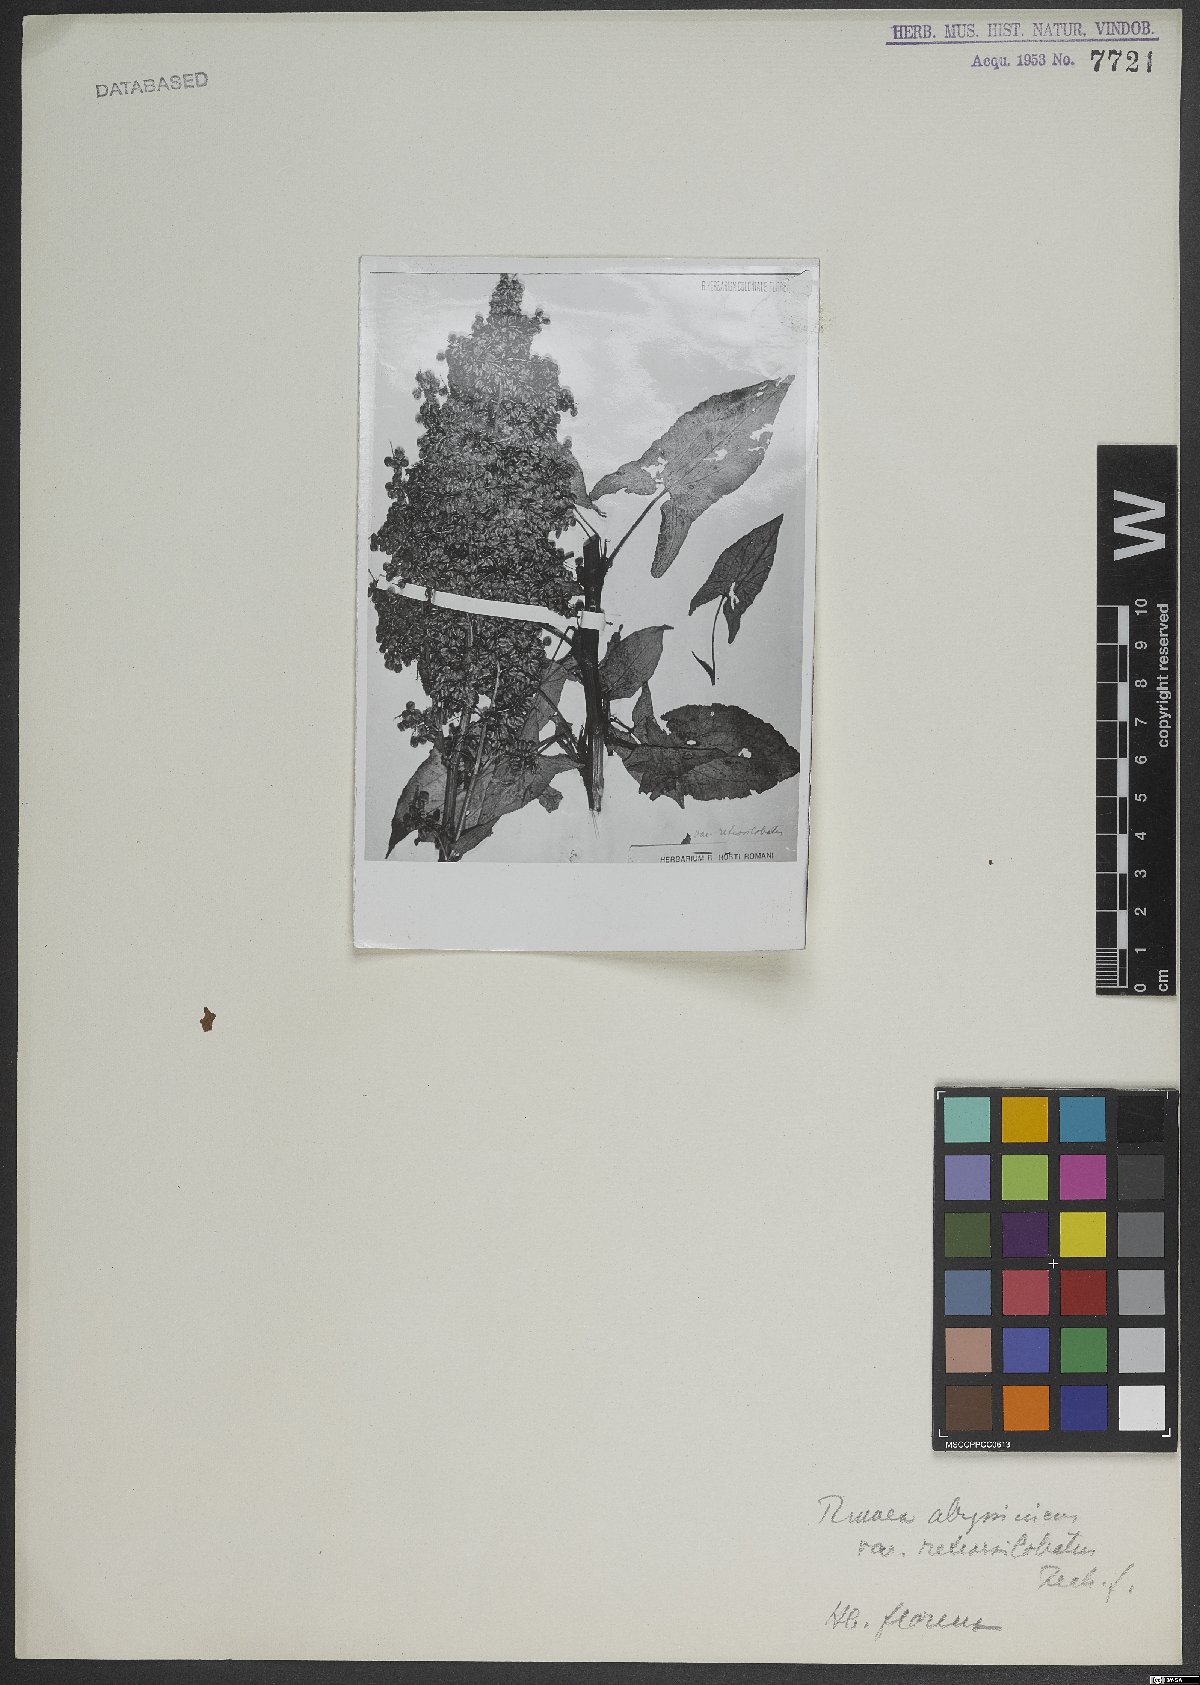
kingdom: Plantae
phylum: Tracheophyta
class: Magnoliopsida
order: Caryophyllales
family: Polygonaceae
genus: Rumex
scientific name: Rumex abyssinicus
